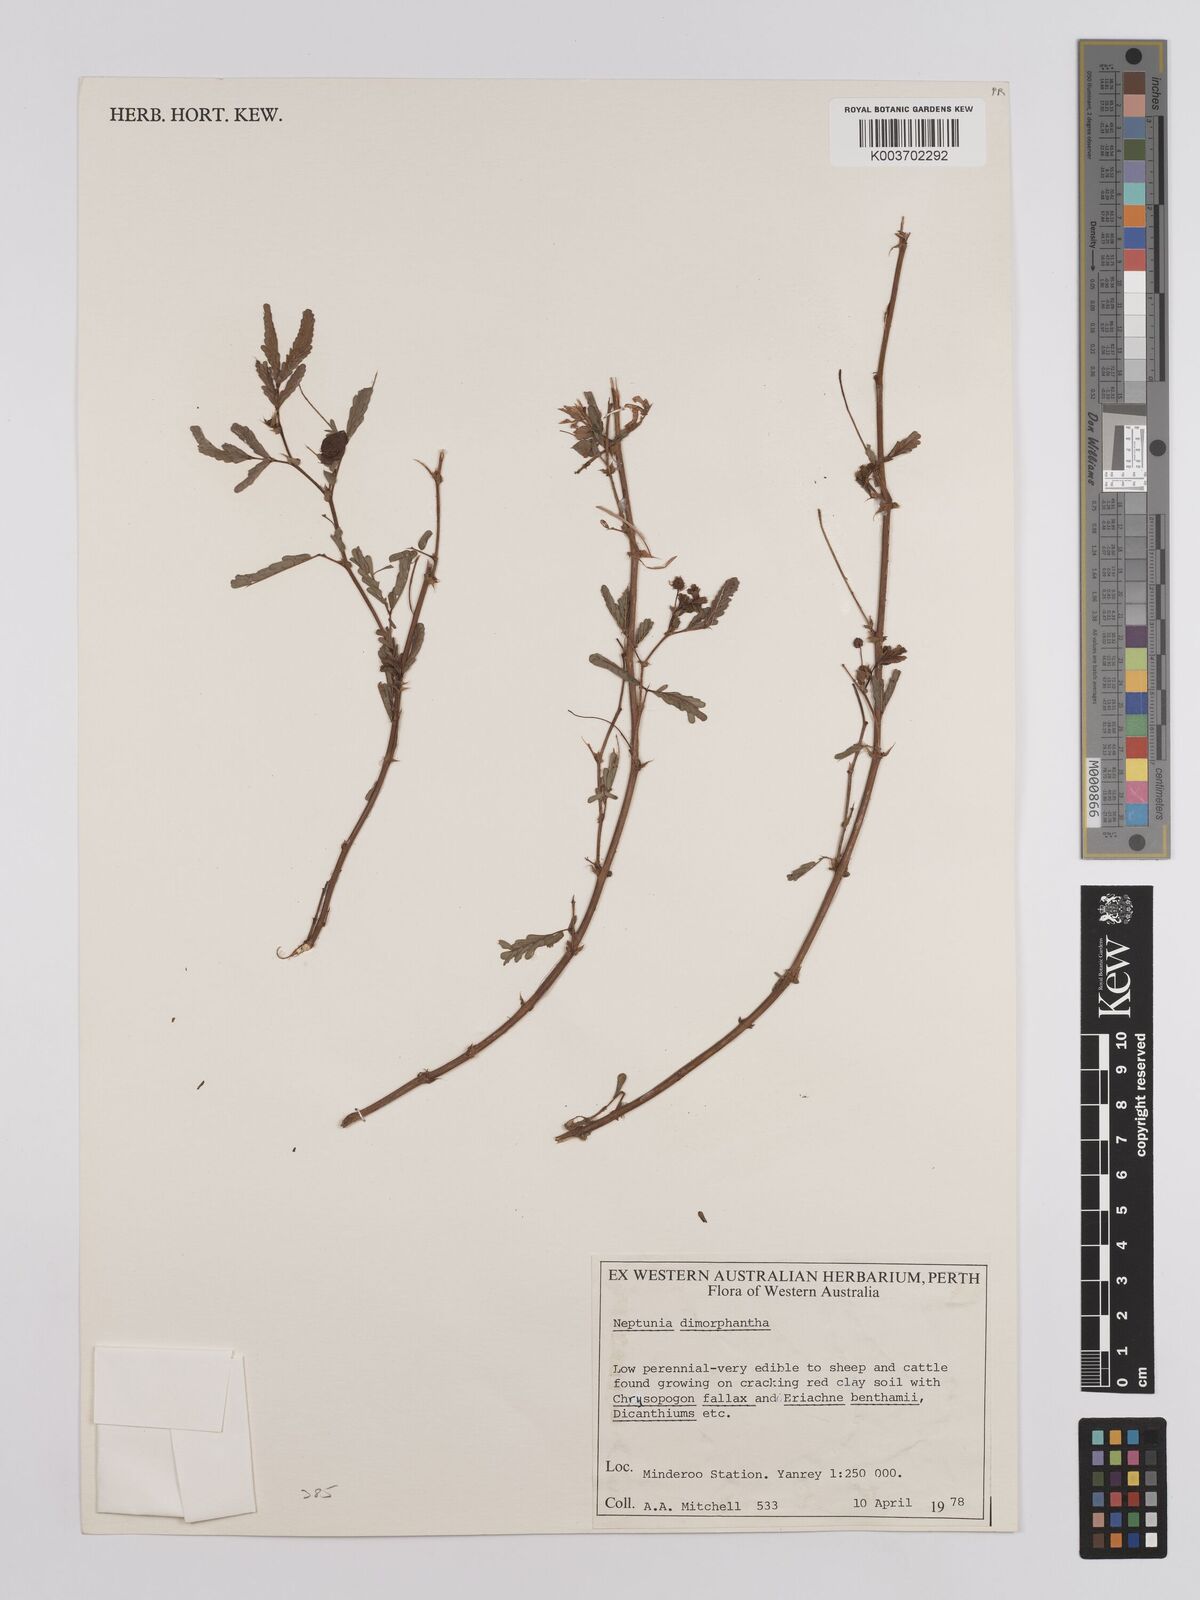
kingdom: Plantae
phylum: Tracheophyta
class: Magnoliopsida
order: Fabales
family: Fabaceae
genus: Neptunia
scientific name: Neptunia dimorphantha
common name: Sensitive-plant
